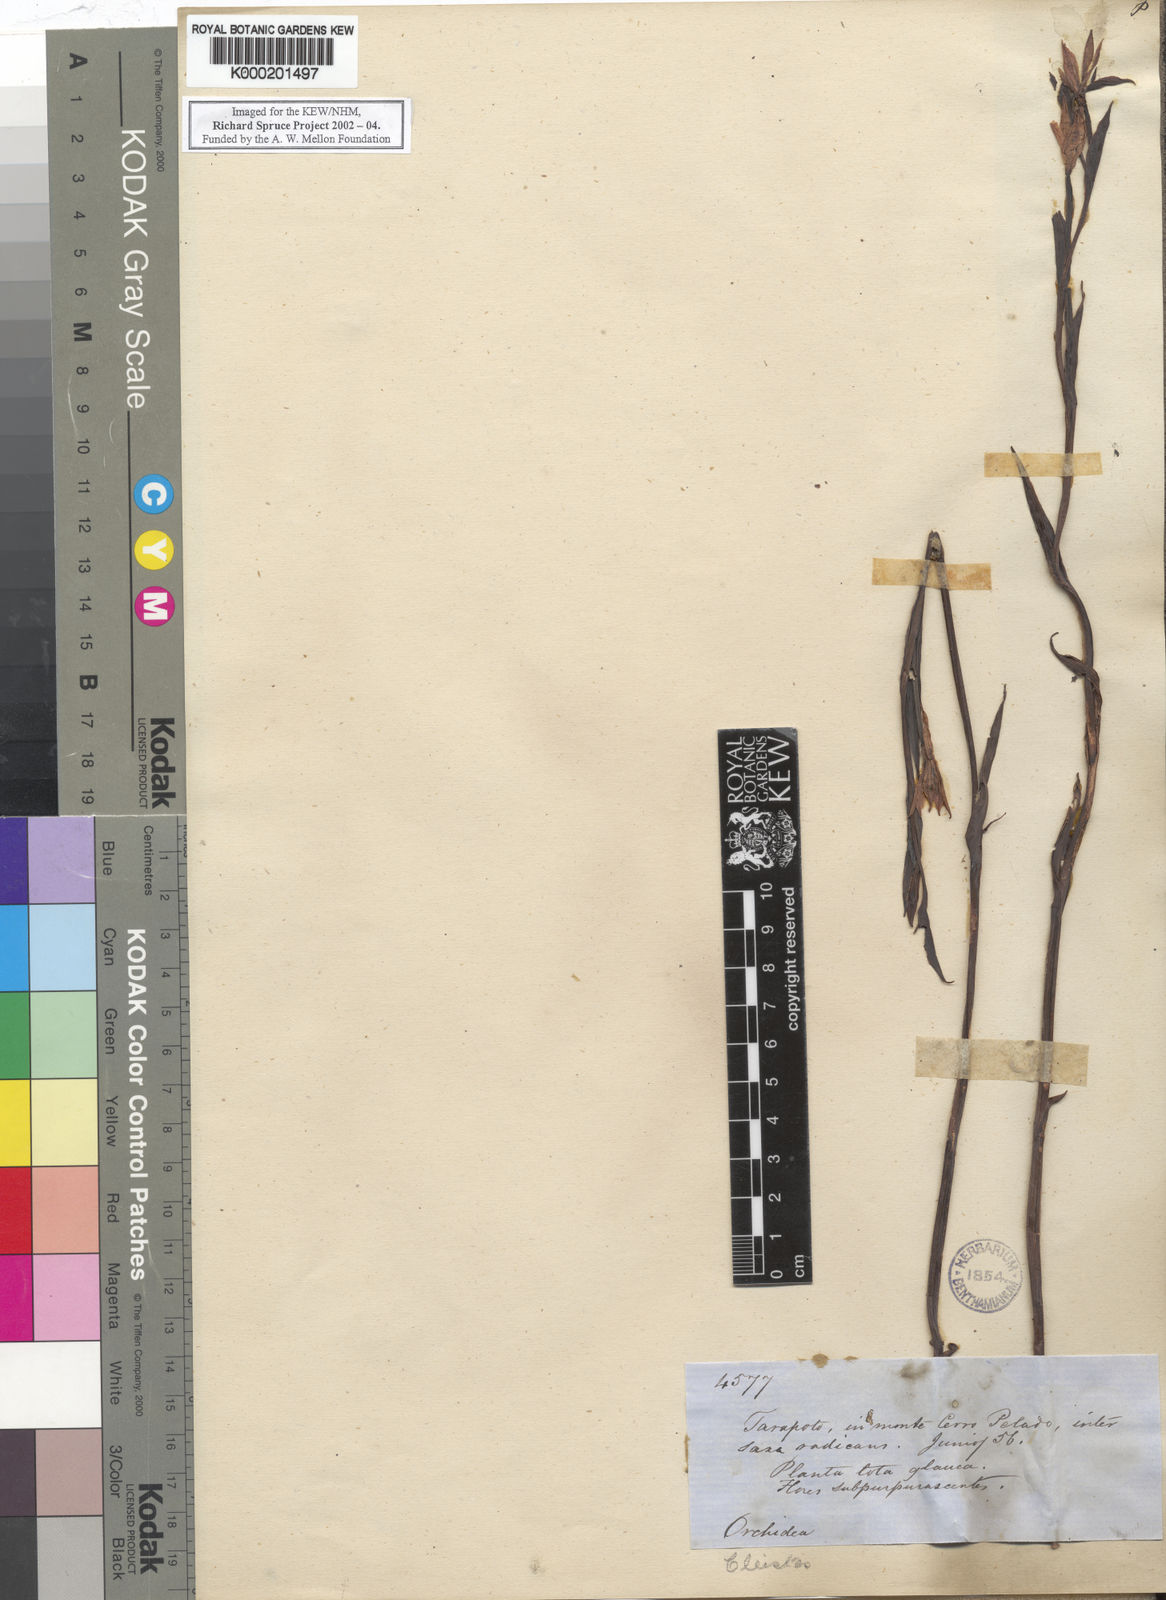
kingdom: Plantae
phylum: Tracheophyta
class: Liliopsida
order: Asparagales
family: Orchidaceae
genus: Cleistes
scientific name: Cleistes
